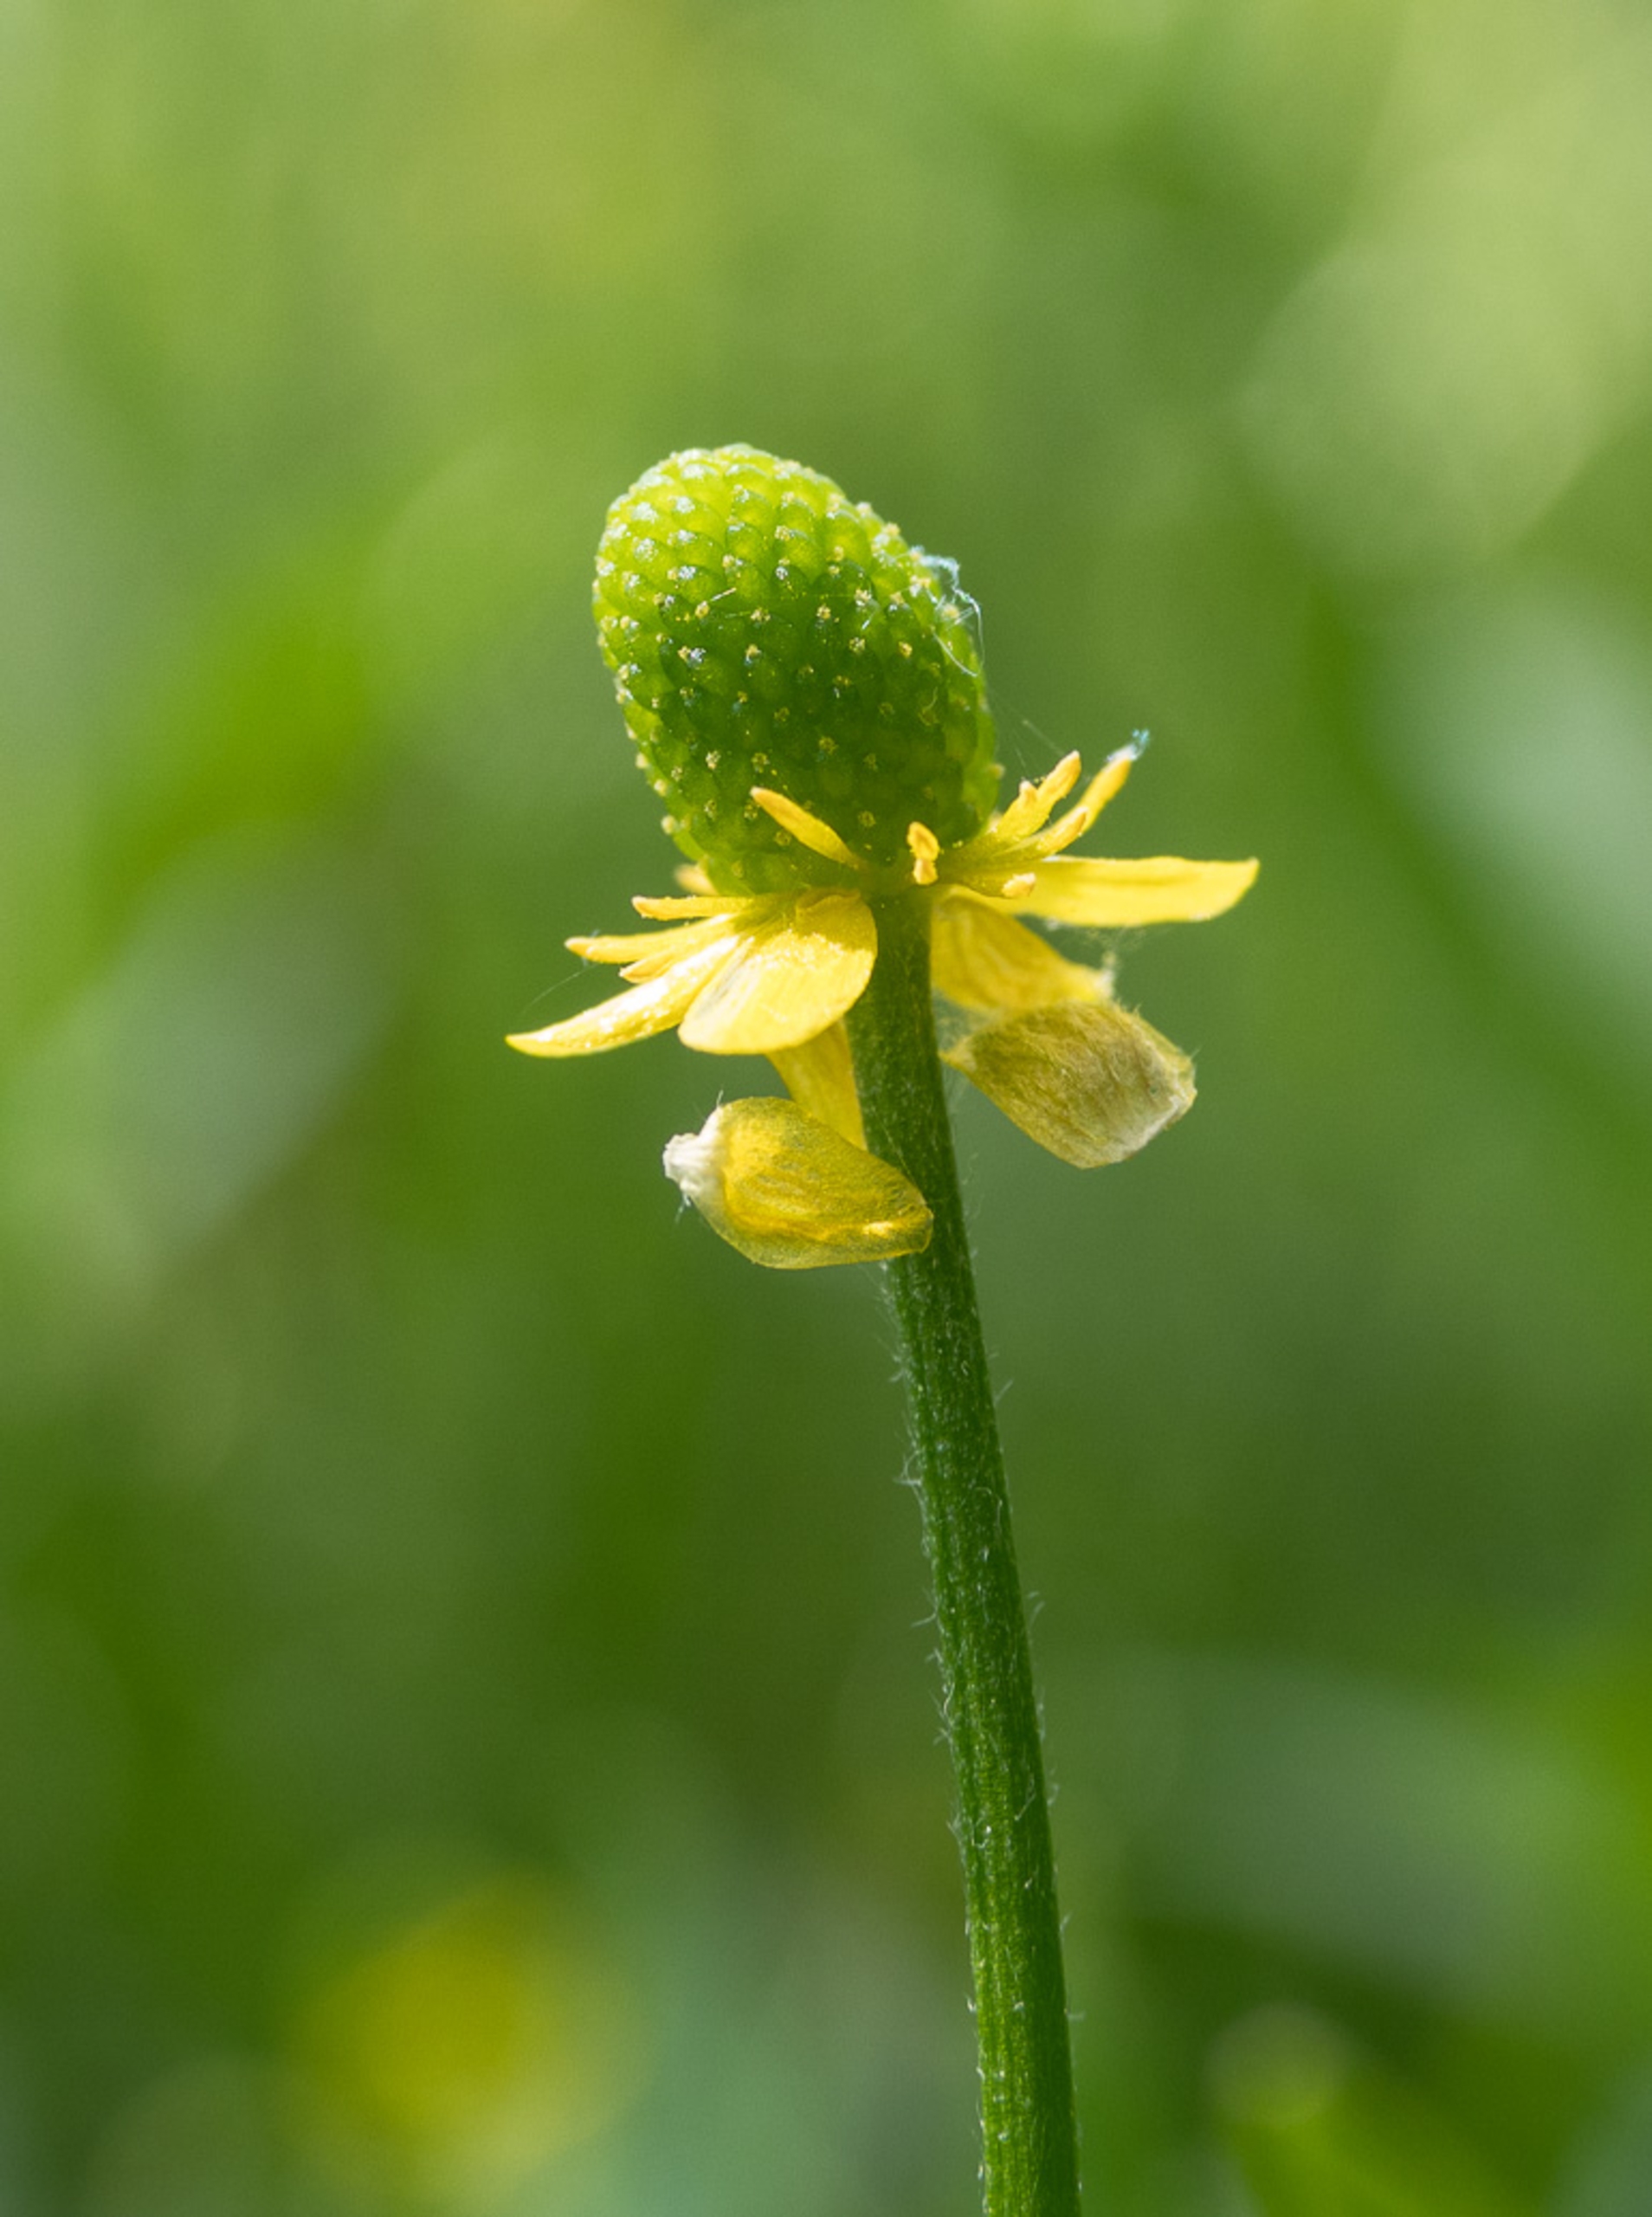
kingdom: Plantae
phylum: Tracheophyta
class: Magnoliopsida
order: Ranunculales
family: Ranunculaceae
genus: Ranunculus
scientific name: Ranunculus sceleratus
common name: Tigger-ranunkel
